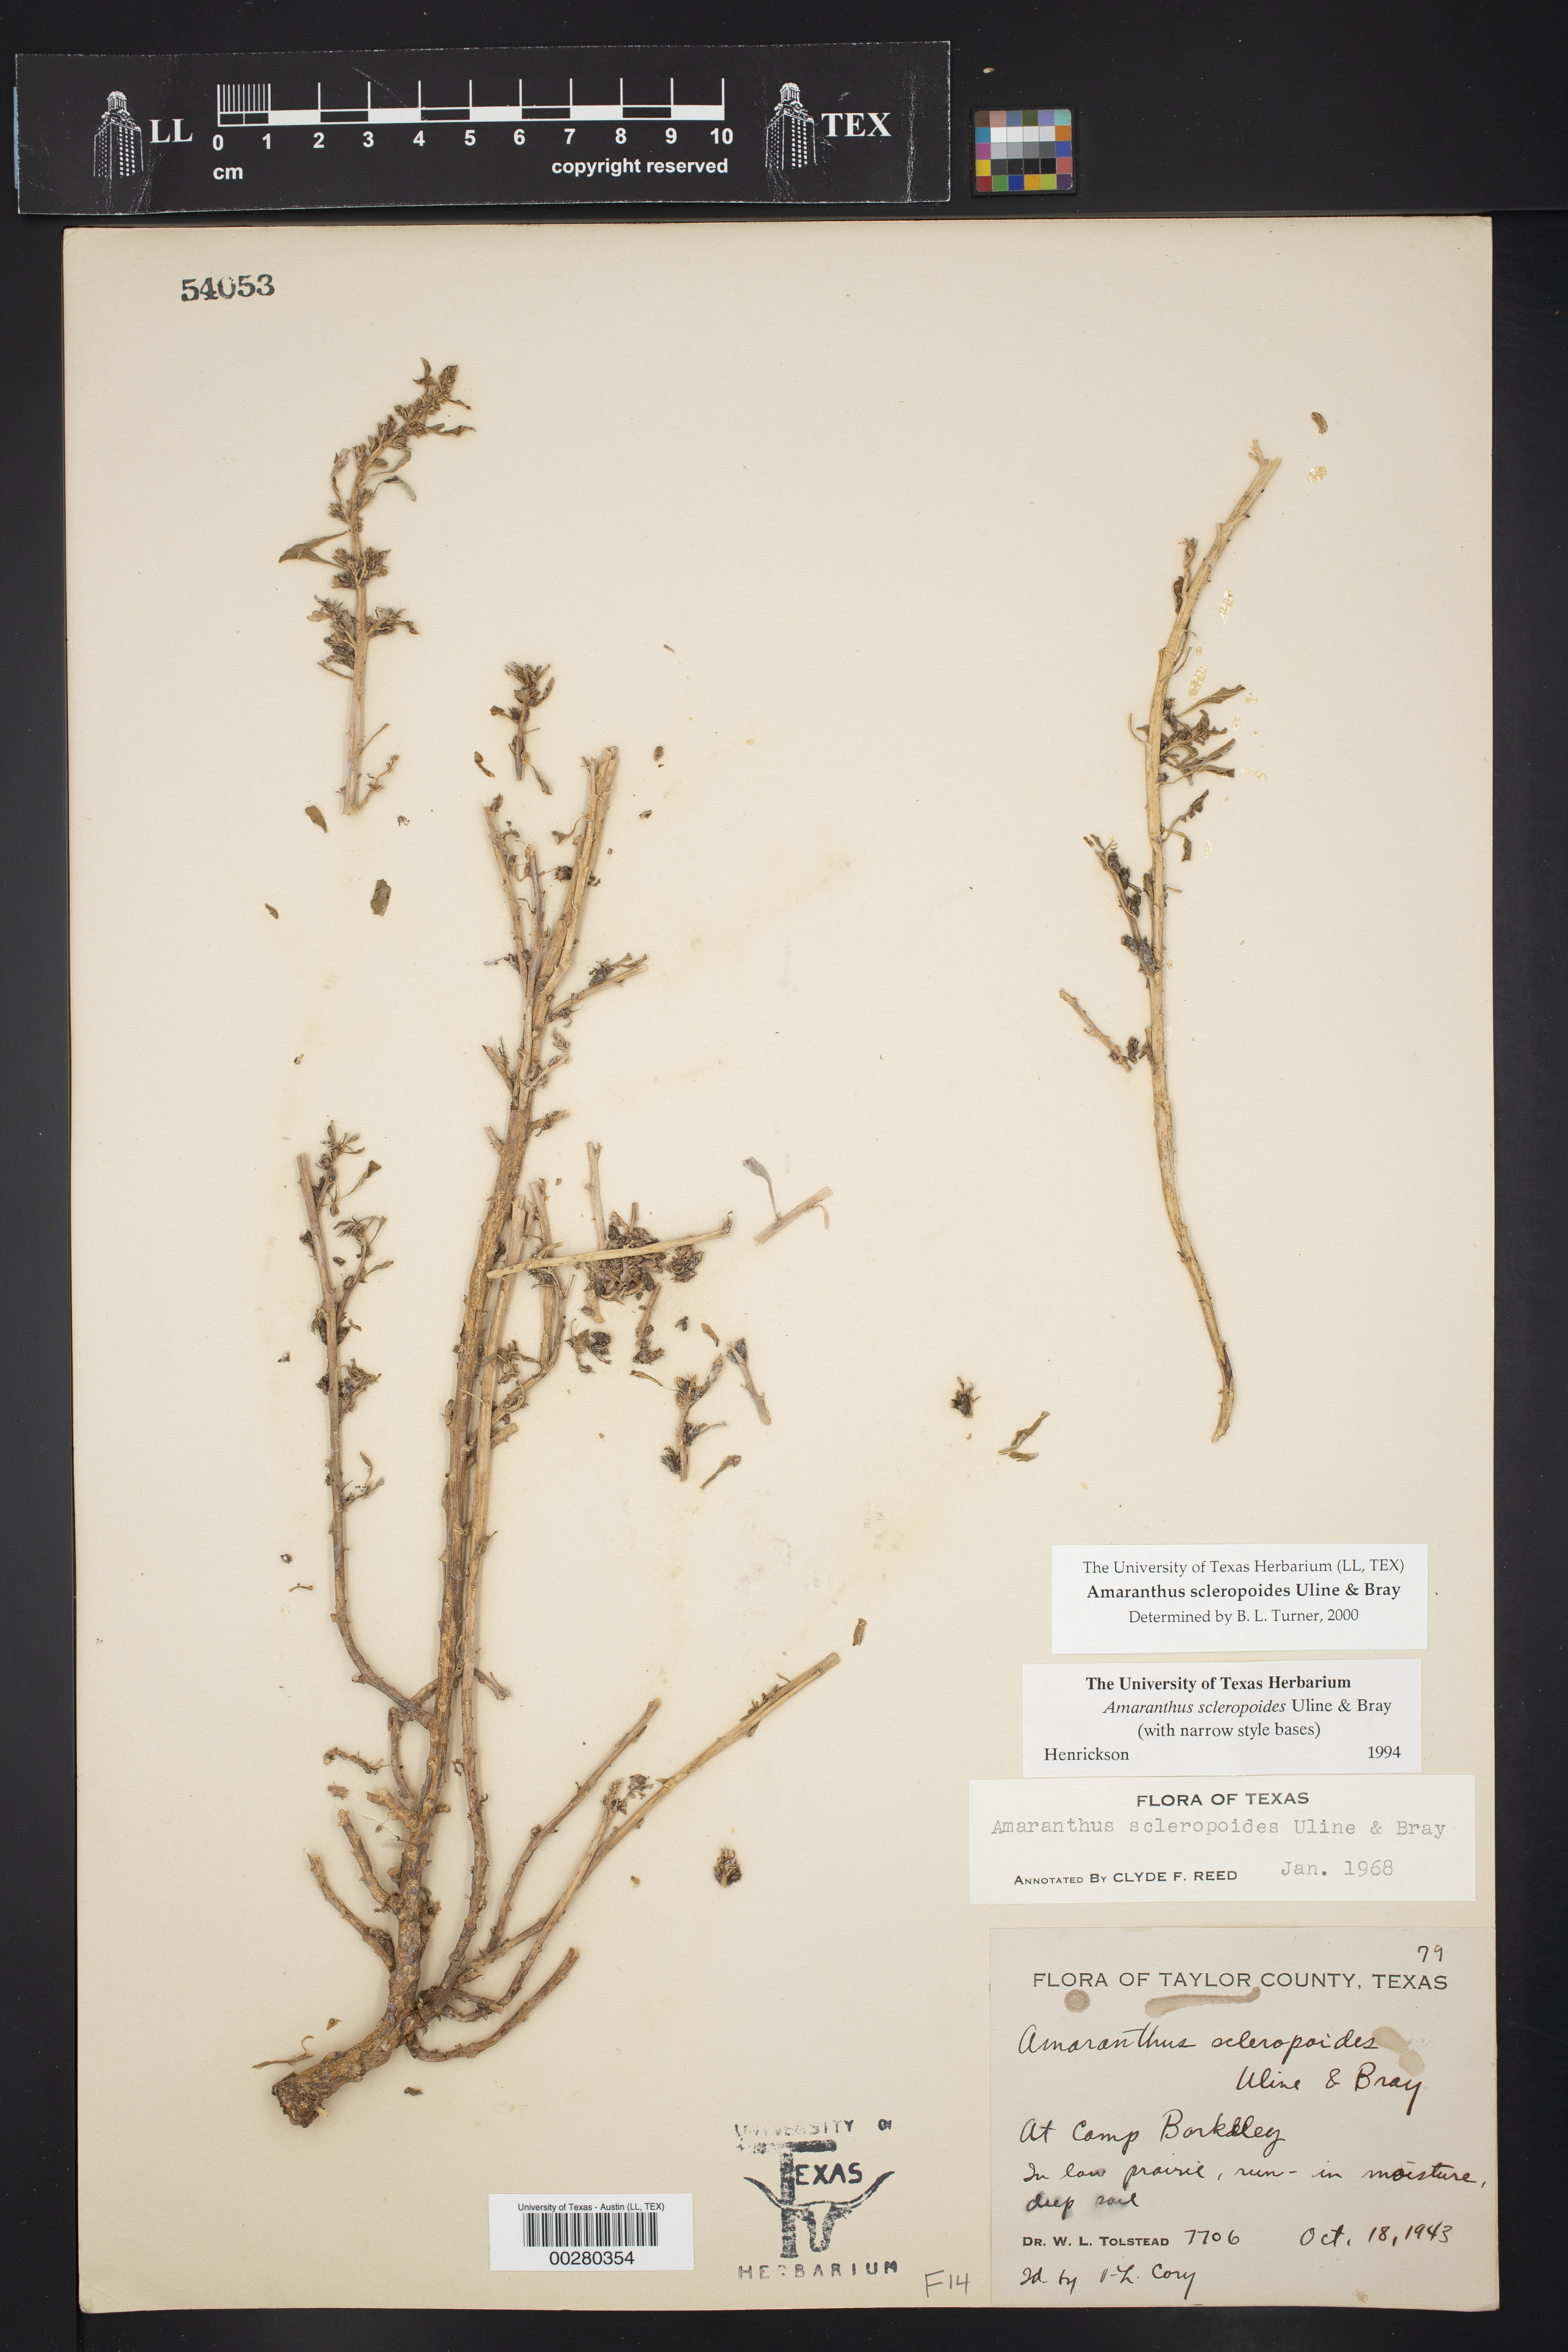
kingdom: Plantae
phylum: Tracheophyta
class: Magnoliopsida
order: Caryophyllales
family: Amaranthaceae
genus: Amaranthus
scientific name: Amaranthus scleropoides
